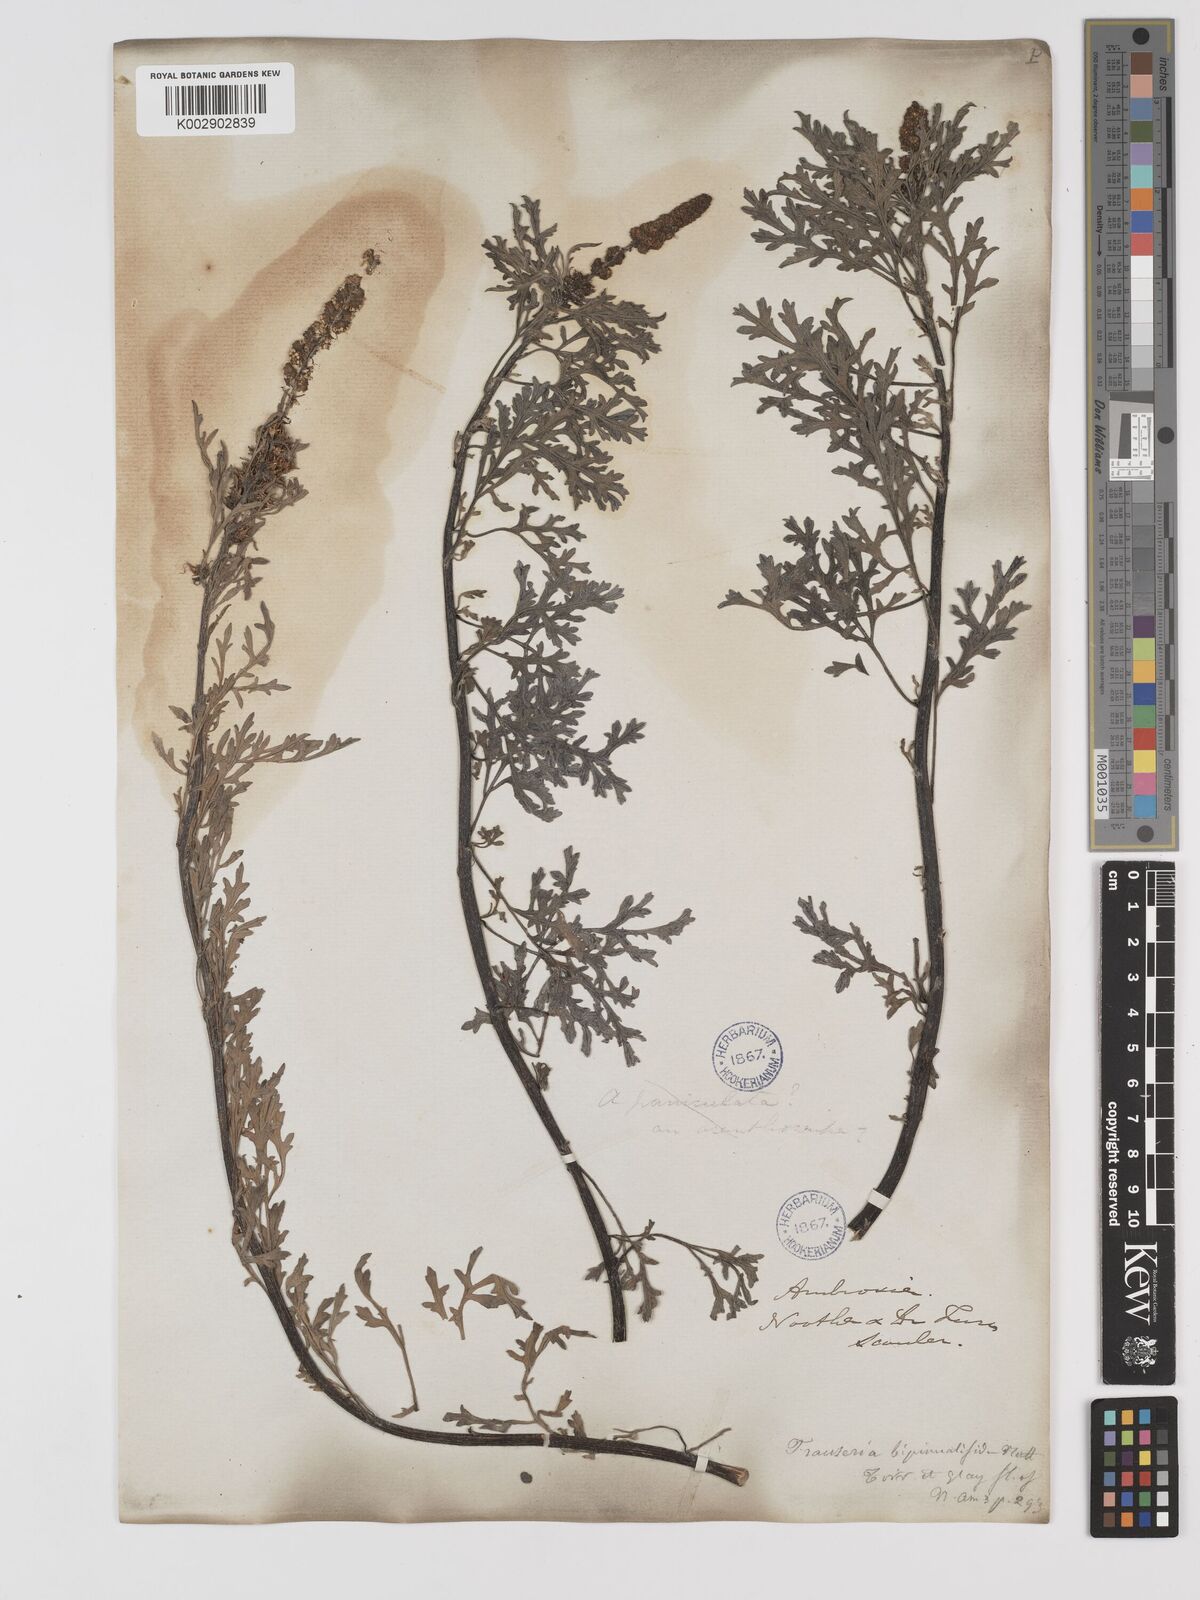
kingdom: Plantae
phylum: Tracheophyta
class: Magnoliopsida
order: Asterales
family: Asteraceae
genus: Ambrosia
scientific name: Ambrosia
